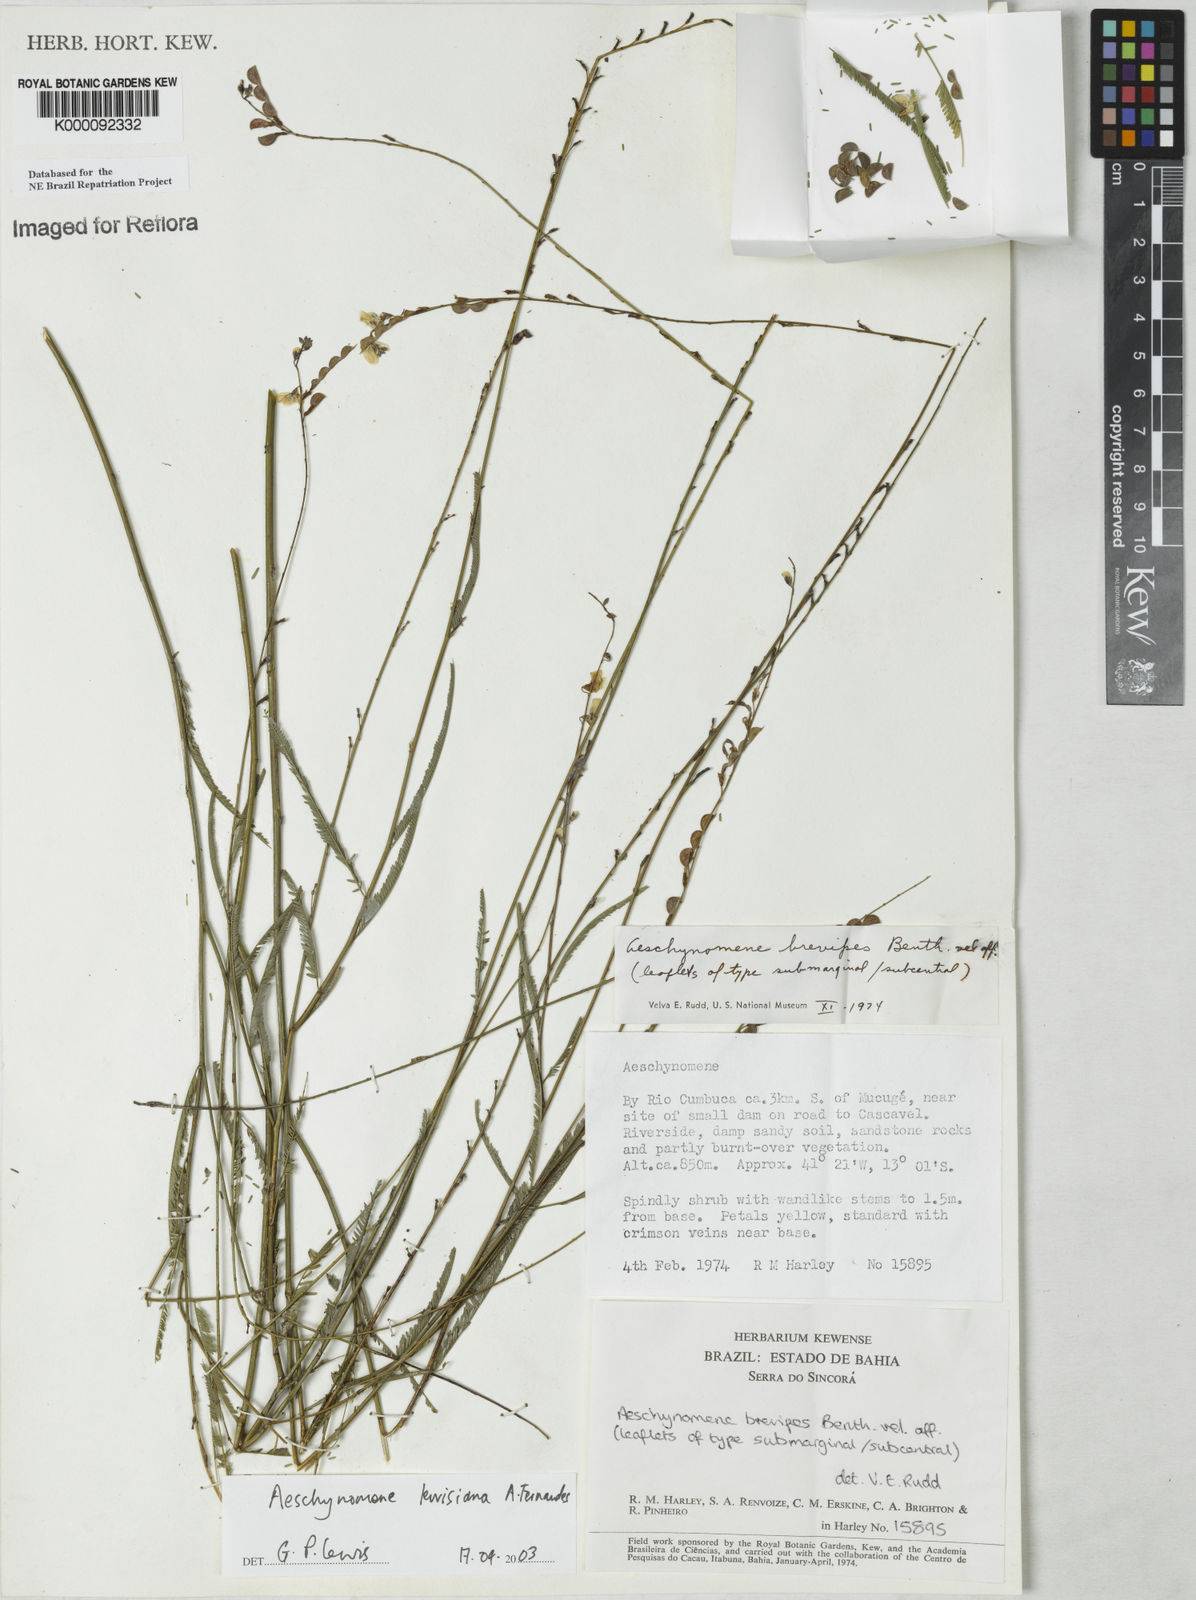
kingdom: Plantae
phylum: Tracheophyta
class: Magnoliopsida
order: Fabales
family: Fabaceae
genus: Ctenodon
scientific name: Ctenodon lewisianus
